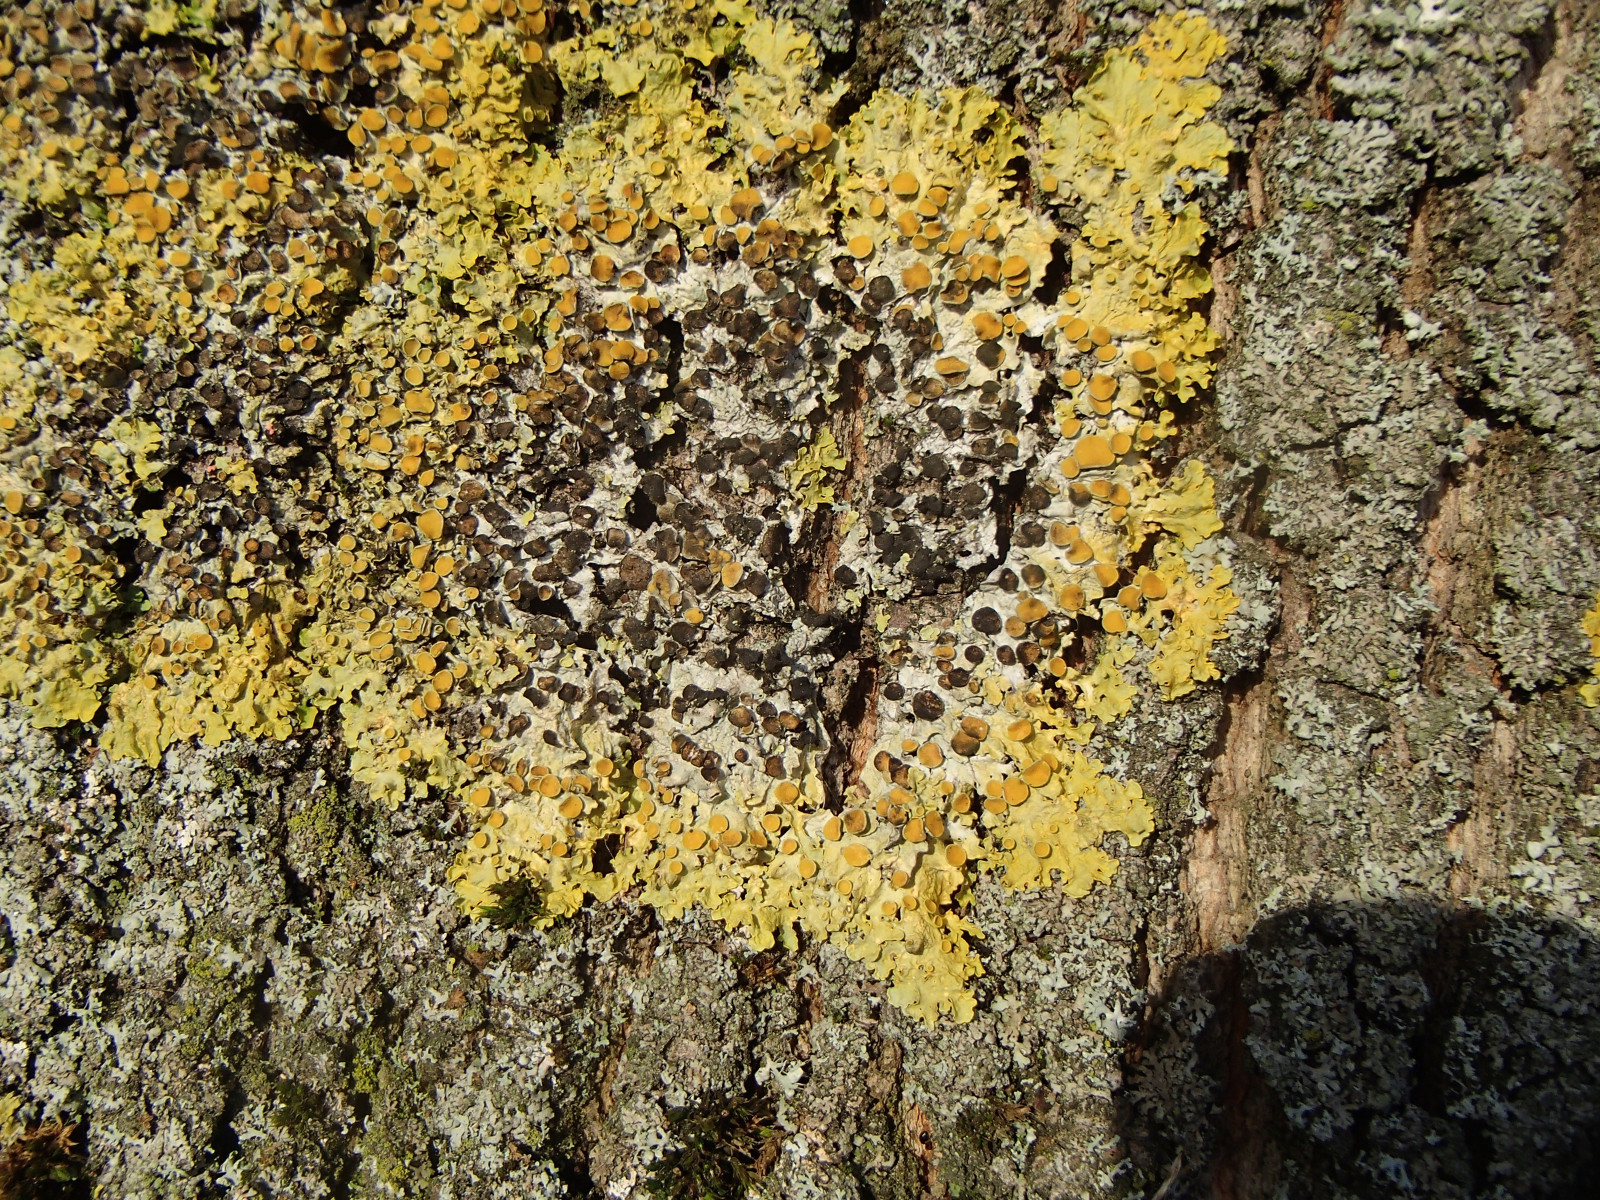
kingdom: Fungi
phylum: Ascomycota
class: Dothideomycetes
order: Mycosphaerellales
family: Teratosphaeriaceae
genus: Xanthoriicola
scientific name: Xanthoriicola physciae
